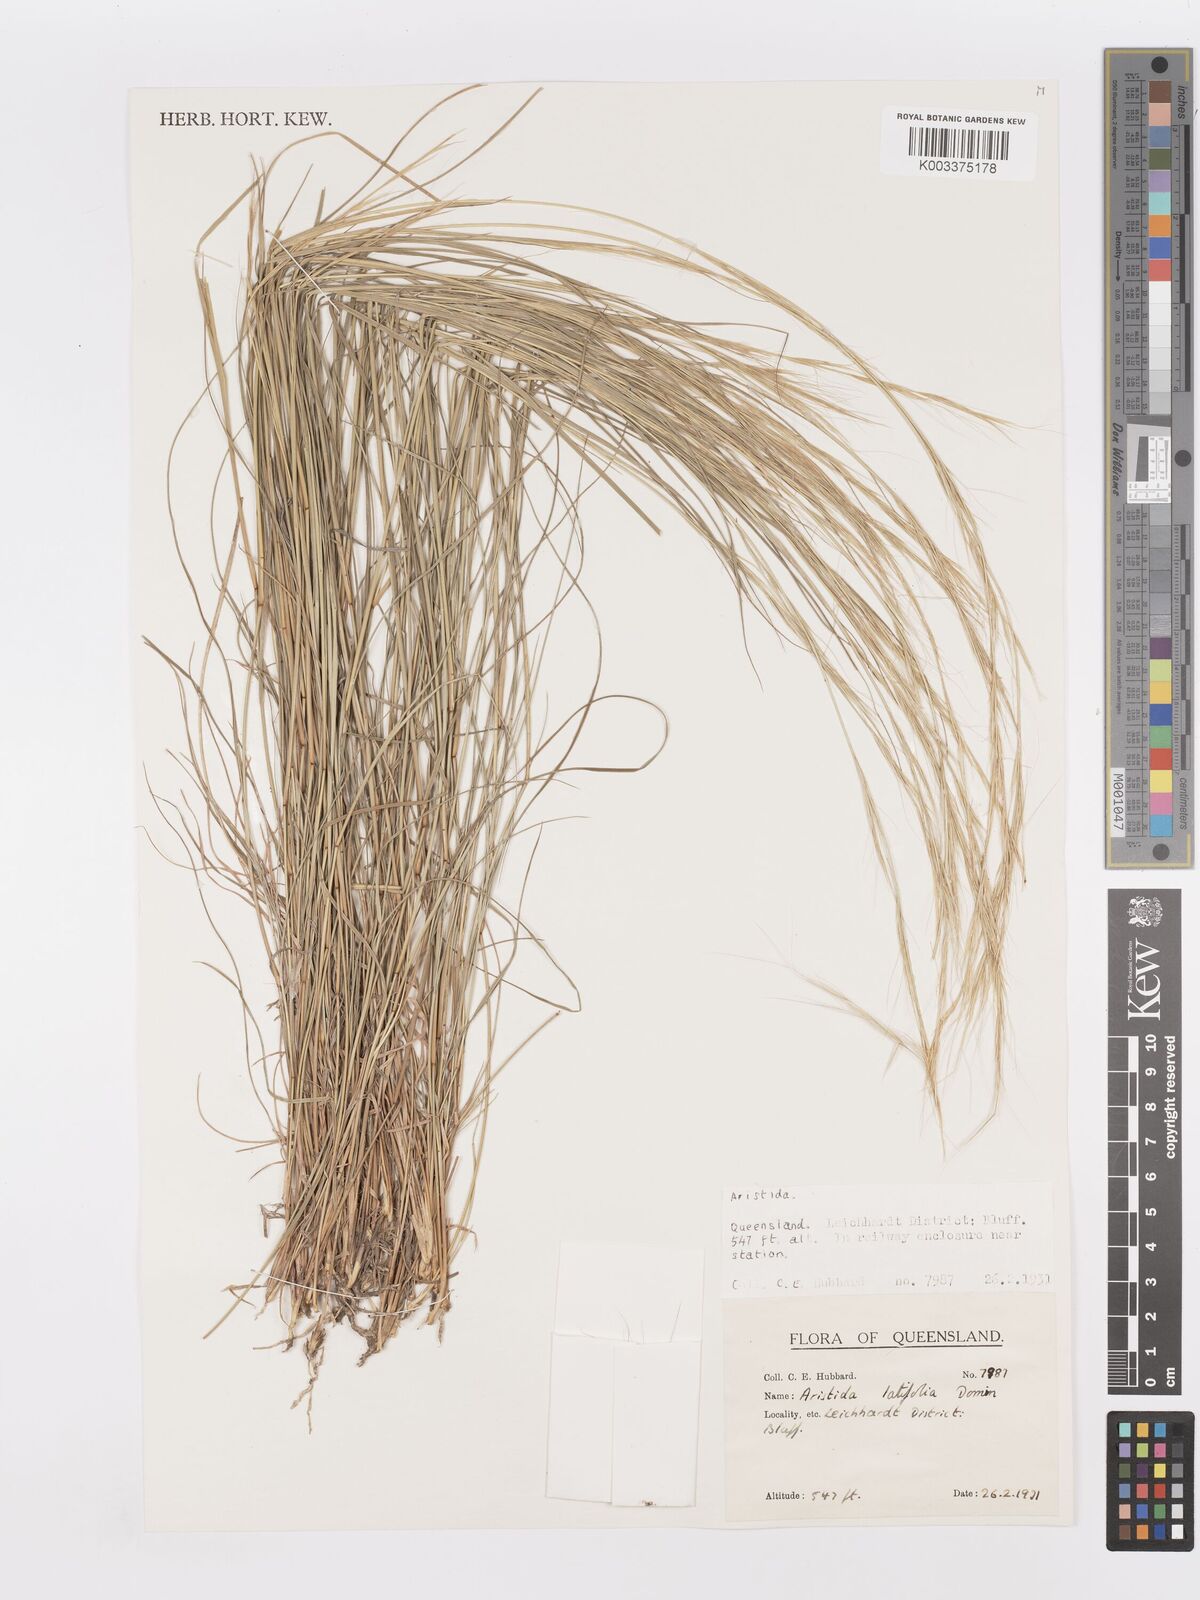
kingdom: Plantae
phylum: Tracheophyta
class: Liliopsida
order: Poales
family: Poaceae
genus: Aristida
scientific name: Aristida latifolia
